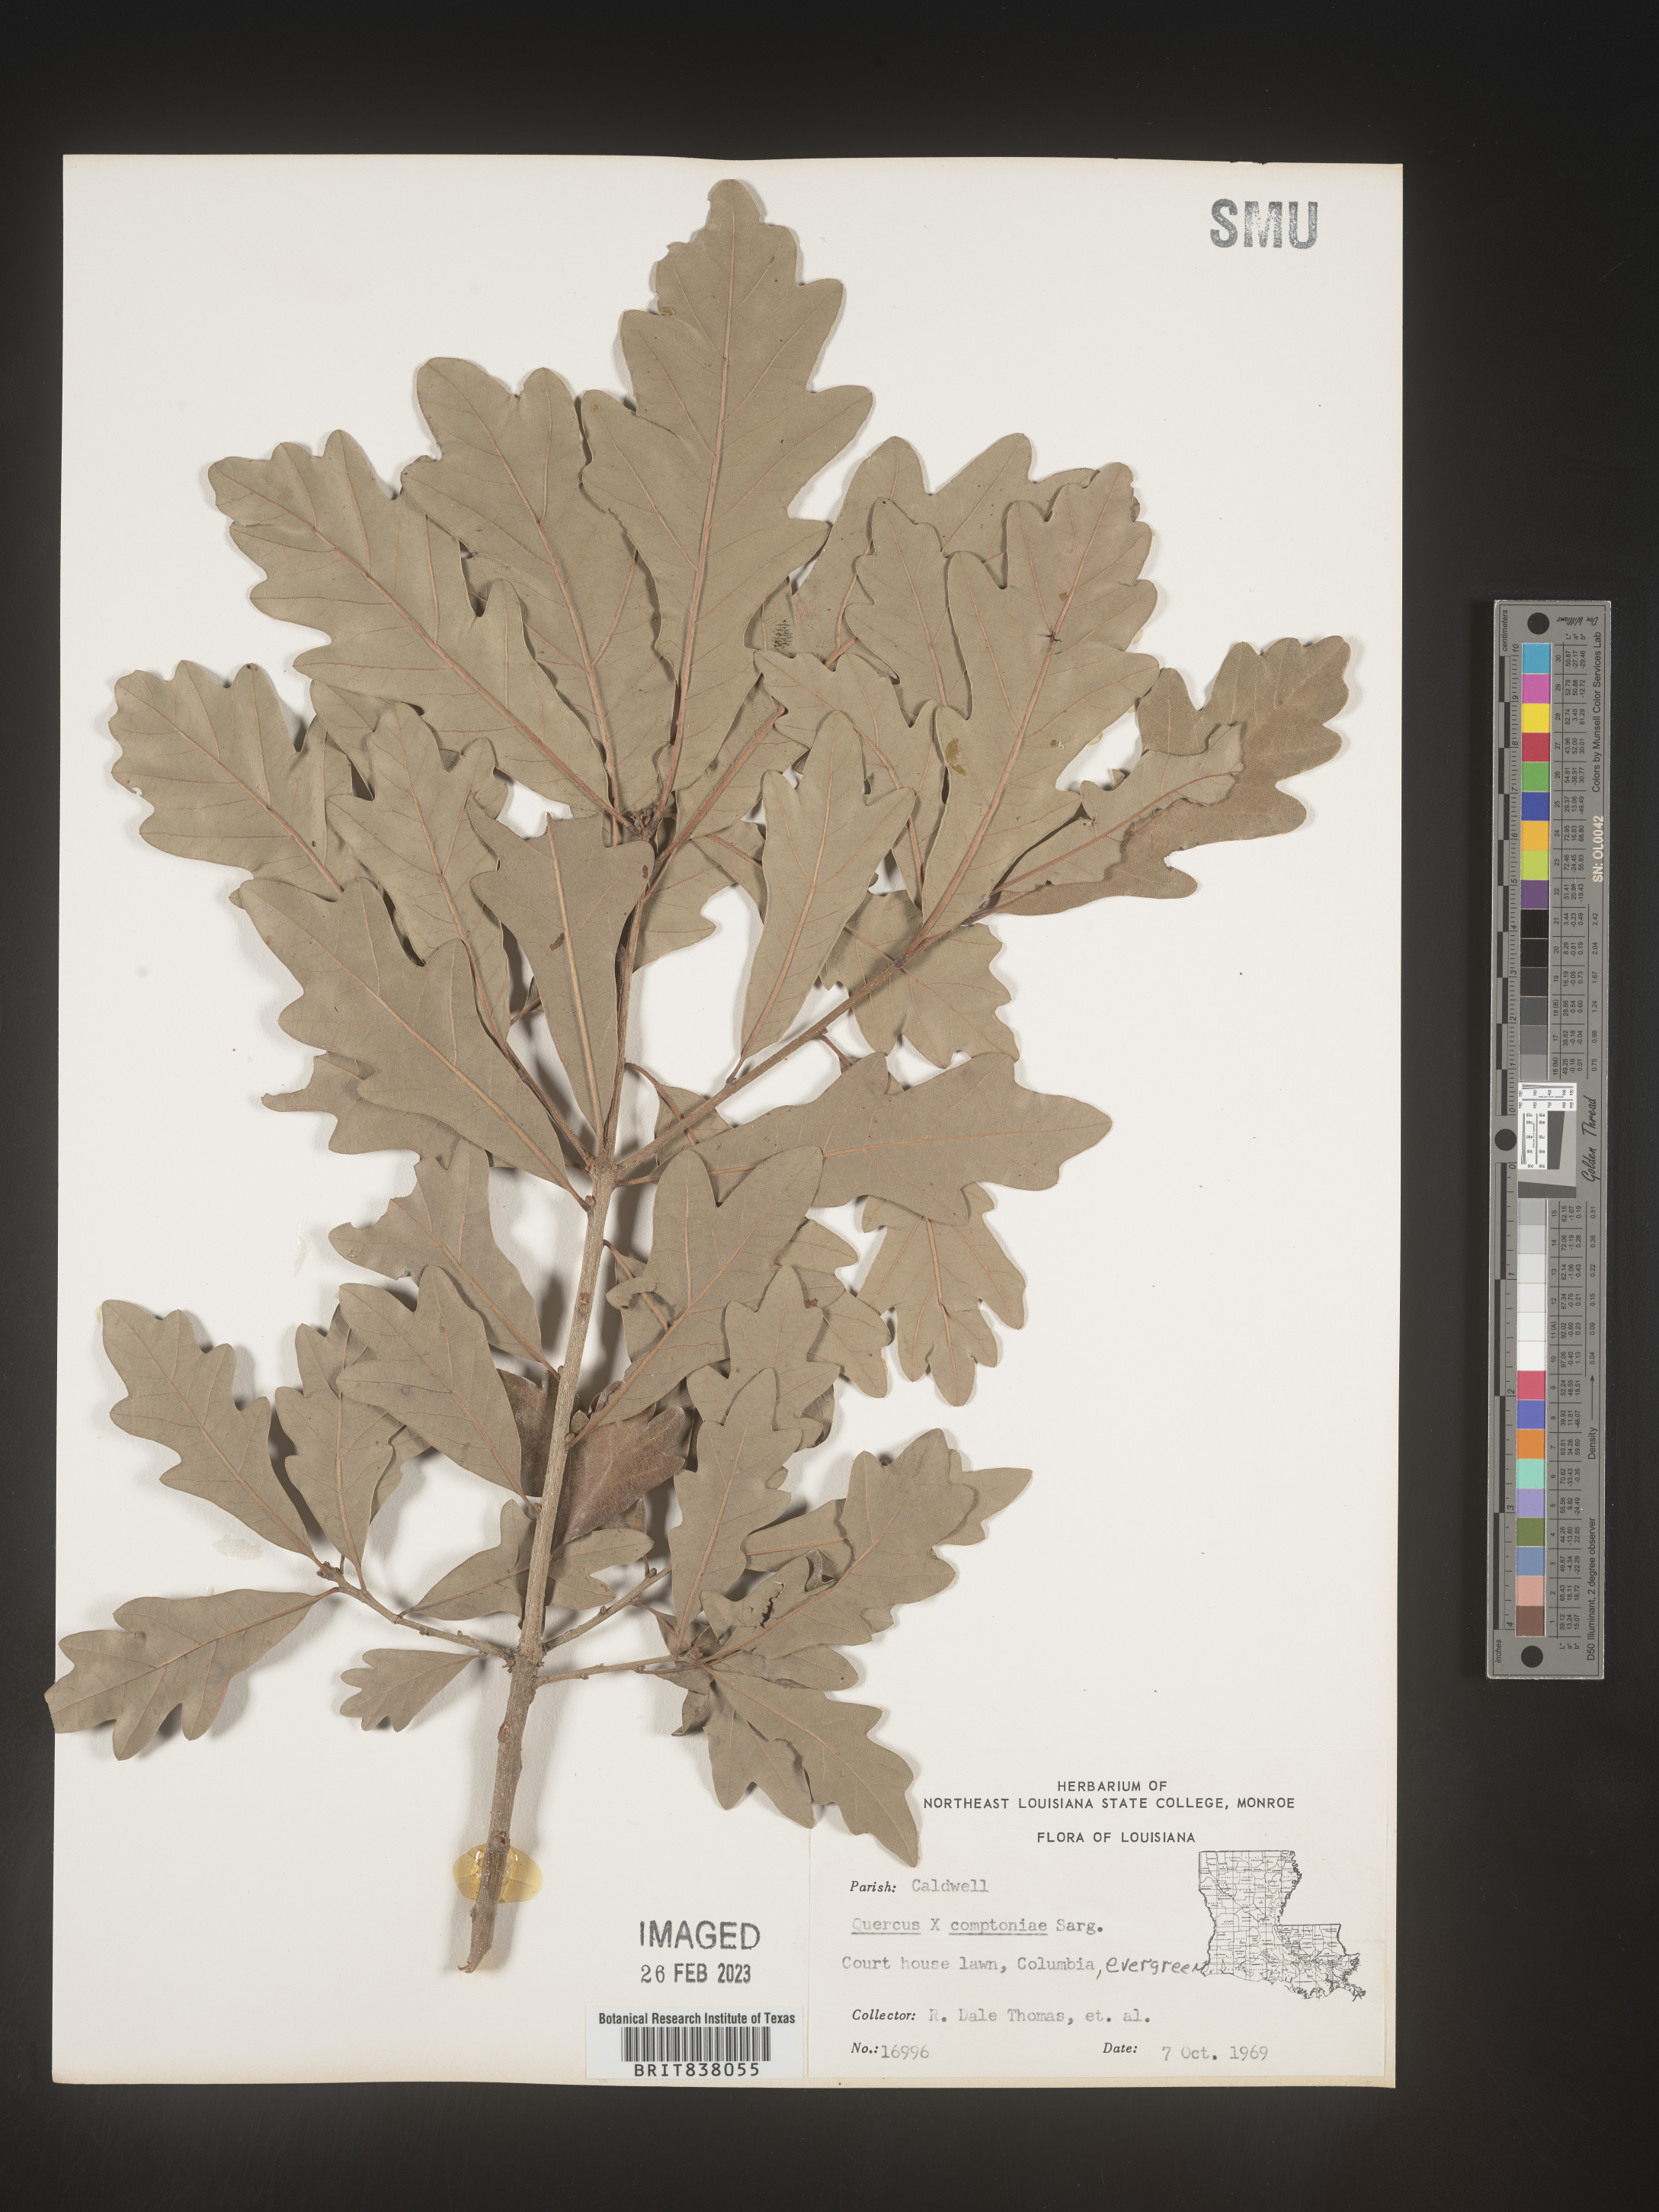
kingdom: Plantae
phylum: Tracheophyta
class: Magnoliopsida
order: Fagales
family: Fagaceae
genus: Quercus
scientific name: Quercus comptoniae
